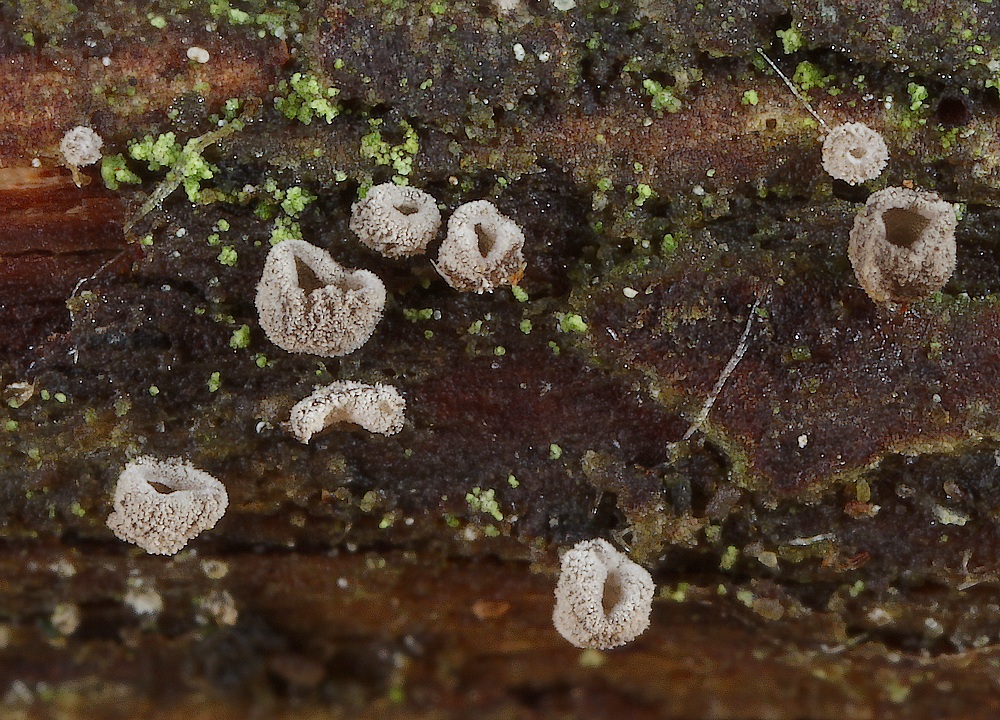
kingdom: Fungi
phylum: Basidiomycota
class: Agaricomycetes
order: Agaricales
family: Pleurotaceae
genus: Resupinatus
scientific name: Resupinatus griseopallidus
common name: ene-barkhat
